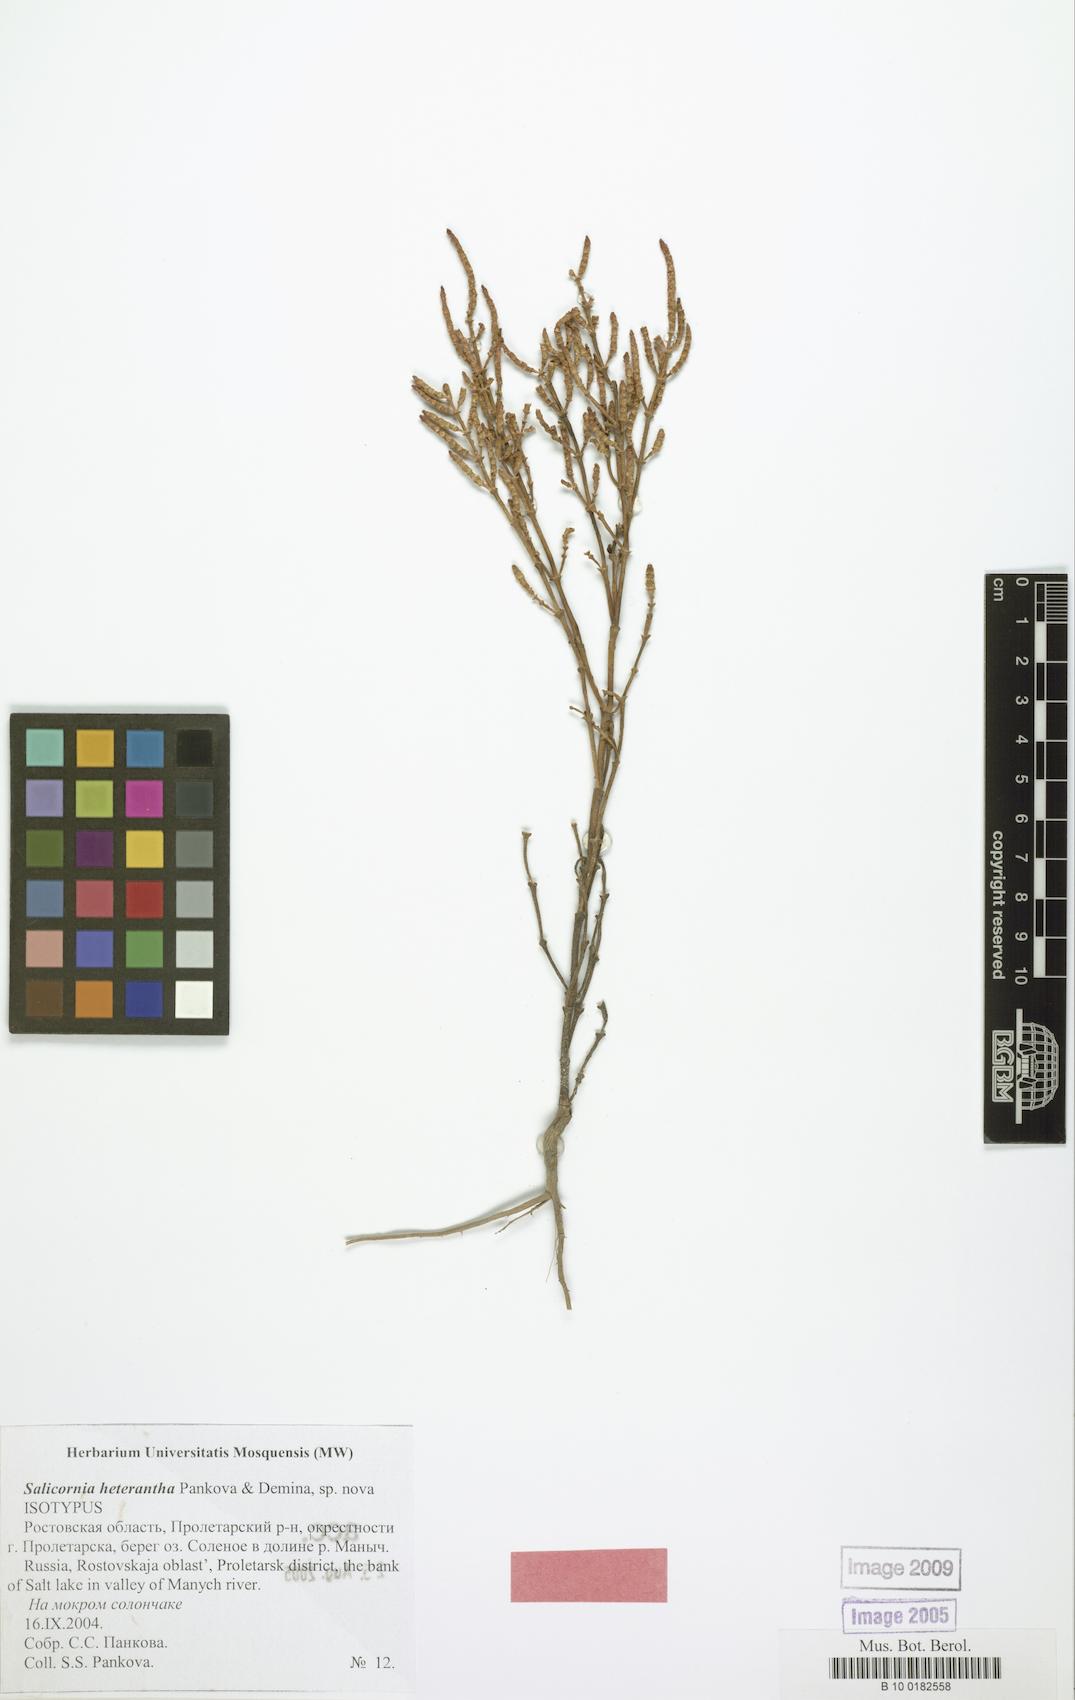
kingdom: Plantae
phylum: Tracheophyta
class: Magnoliopsida
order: Caryophyllales
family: Amaranthaceae
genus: Salicornia
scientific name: Salicornia procumbens
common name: Long-spiked glasswort
